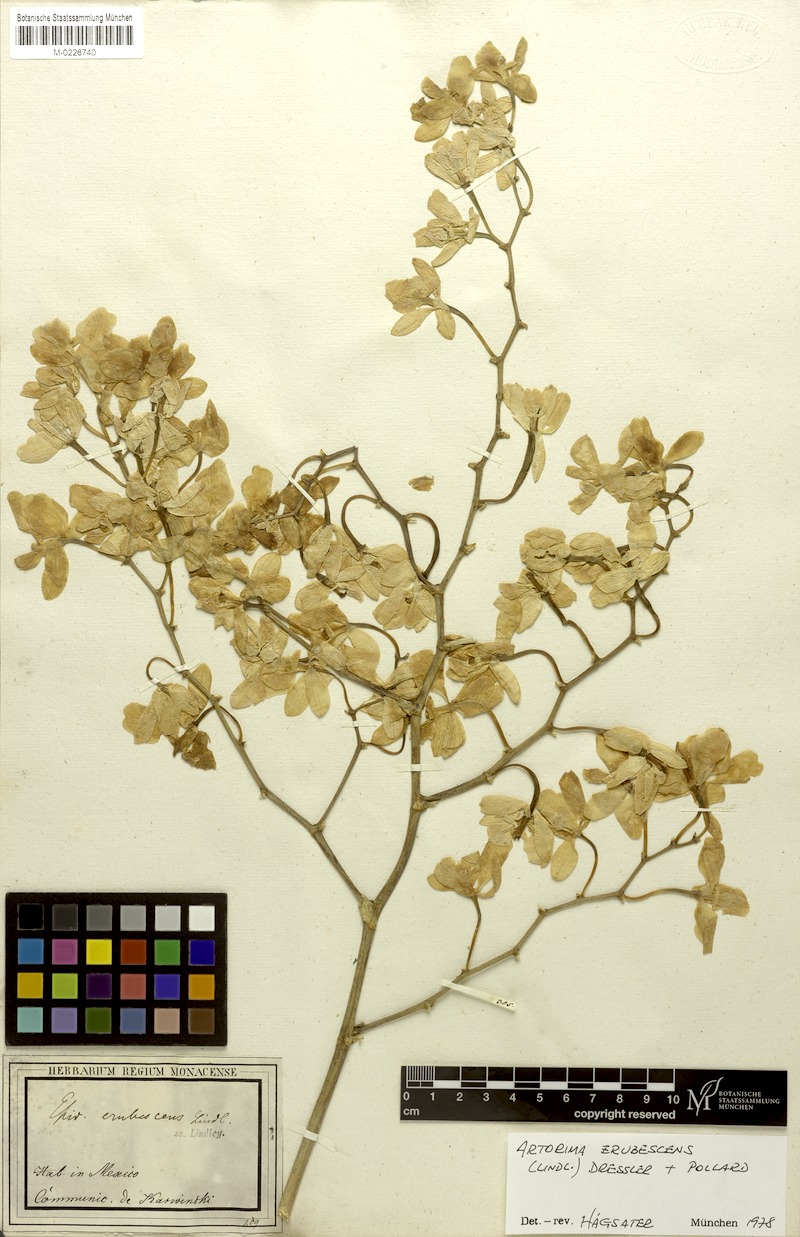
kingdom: Plantae
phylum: Tracheophyta
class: Liliopsida
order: Asparagales
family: Orchidaceae
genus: Artorima
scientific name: Artorima erubescens
